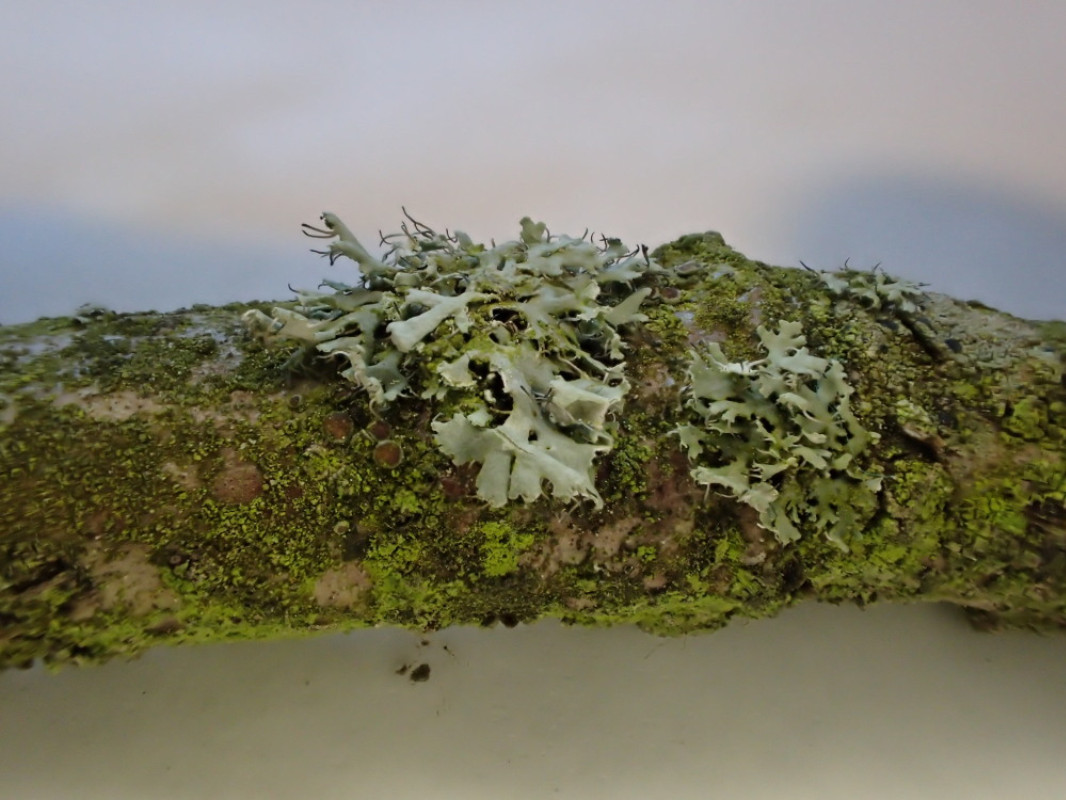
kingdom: Fungi
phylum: Ascomycota
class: Lecanoromycetes
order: Caliciales
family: Physciaceae
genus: Physcia
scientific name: Physcia tenella
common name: spæd rosetlav
